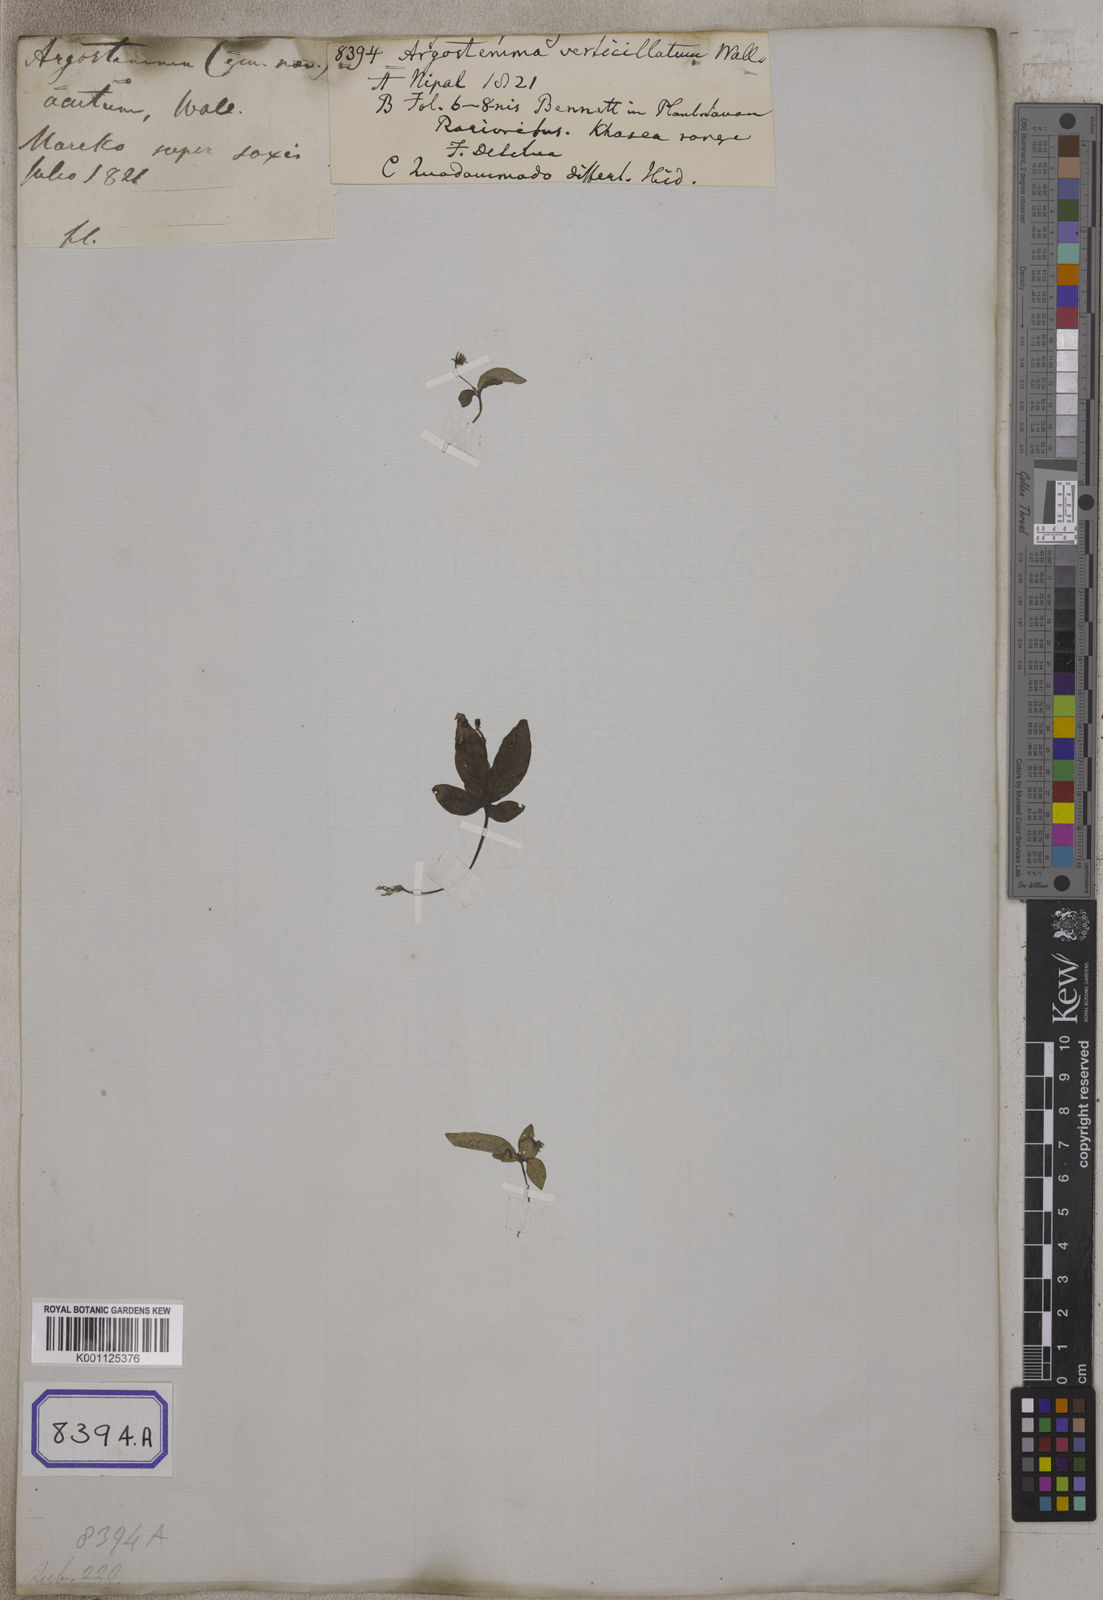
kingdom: Plantae
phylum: Tracheophyta
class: Magnoliopsida
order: Gentianales
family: Rubiaceae
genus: Argostemma
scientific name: Argostemma verticillatum
